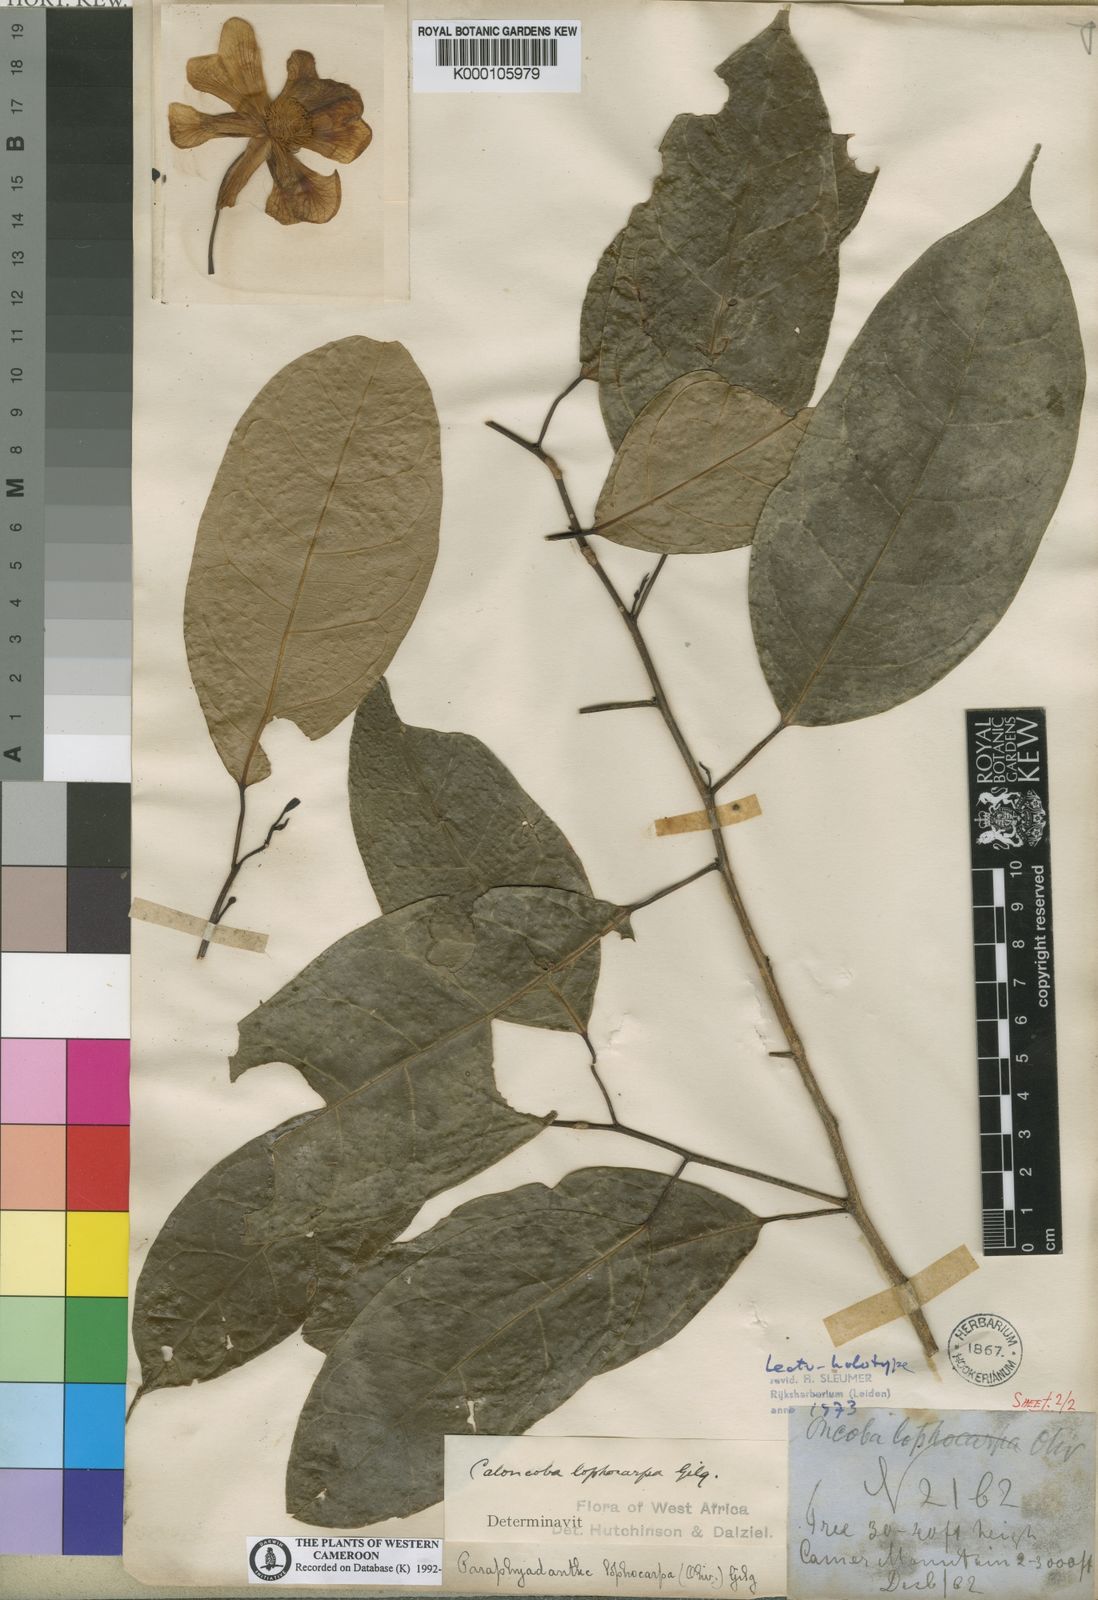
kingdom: Plantae
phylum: Tracheophyta
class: Magnoliopsida
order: Malpighiales
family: Achariaceae
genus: Caloncoba
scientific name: Caloncoba lophocarpa
